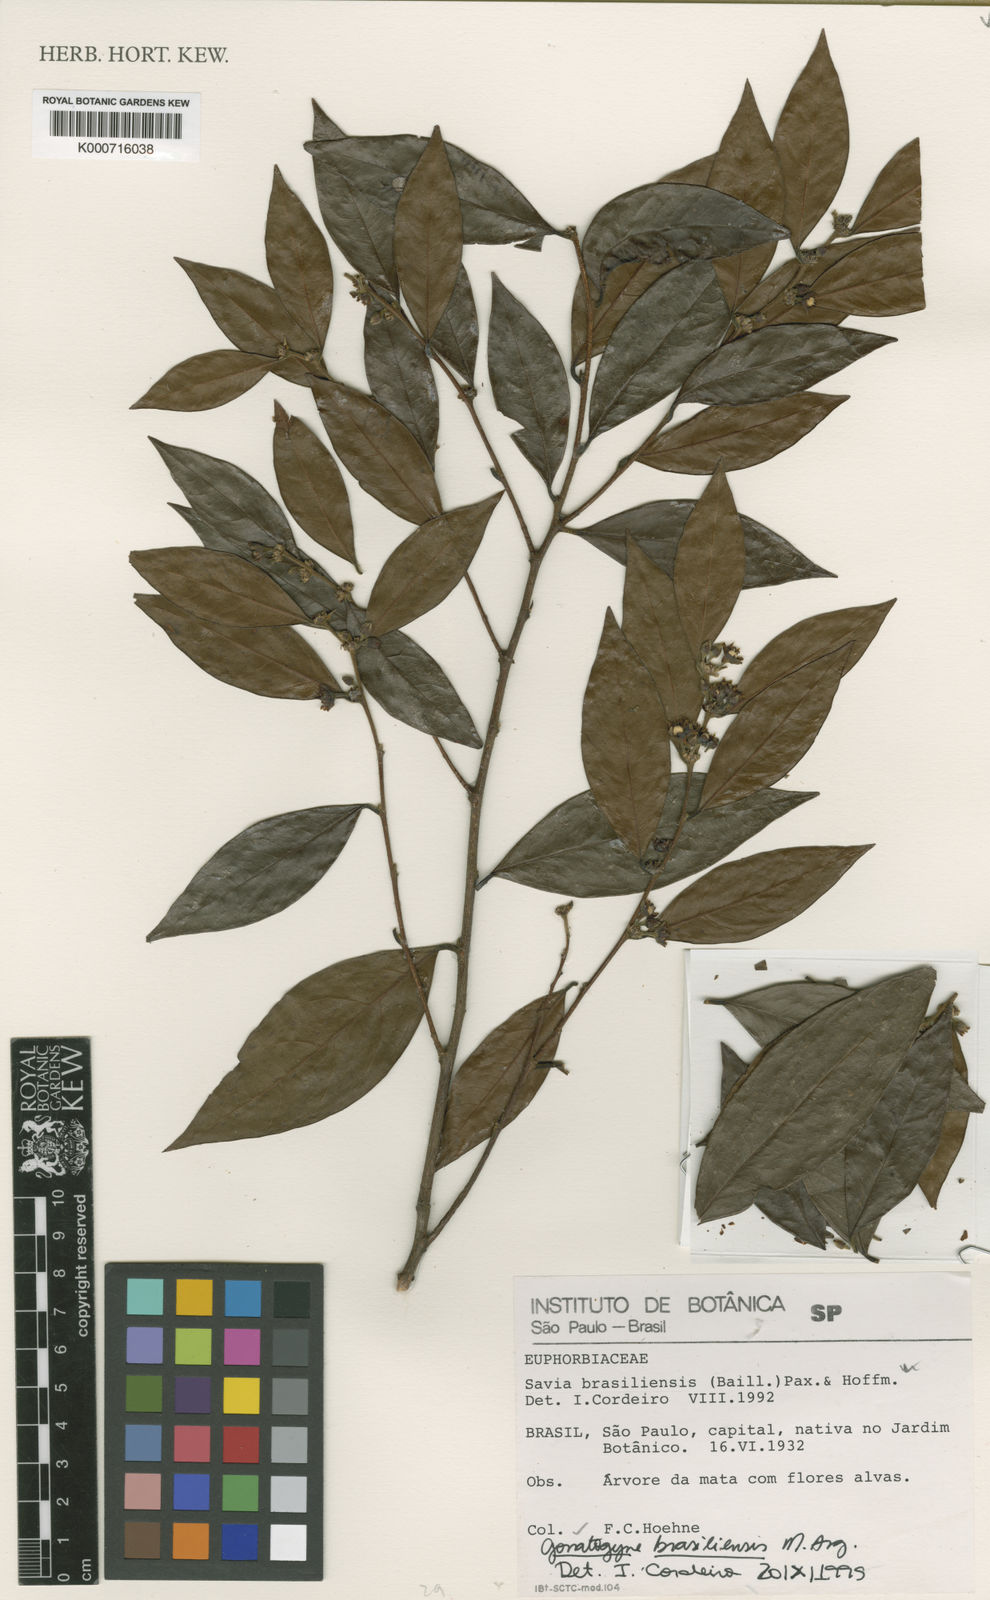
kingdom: Plantae
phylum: Tracheophyta
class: Magnoliopsida
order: Malpighiales
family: Phyllanthaceae
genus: Gonatogyne
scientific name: Gonatogyne
